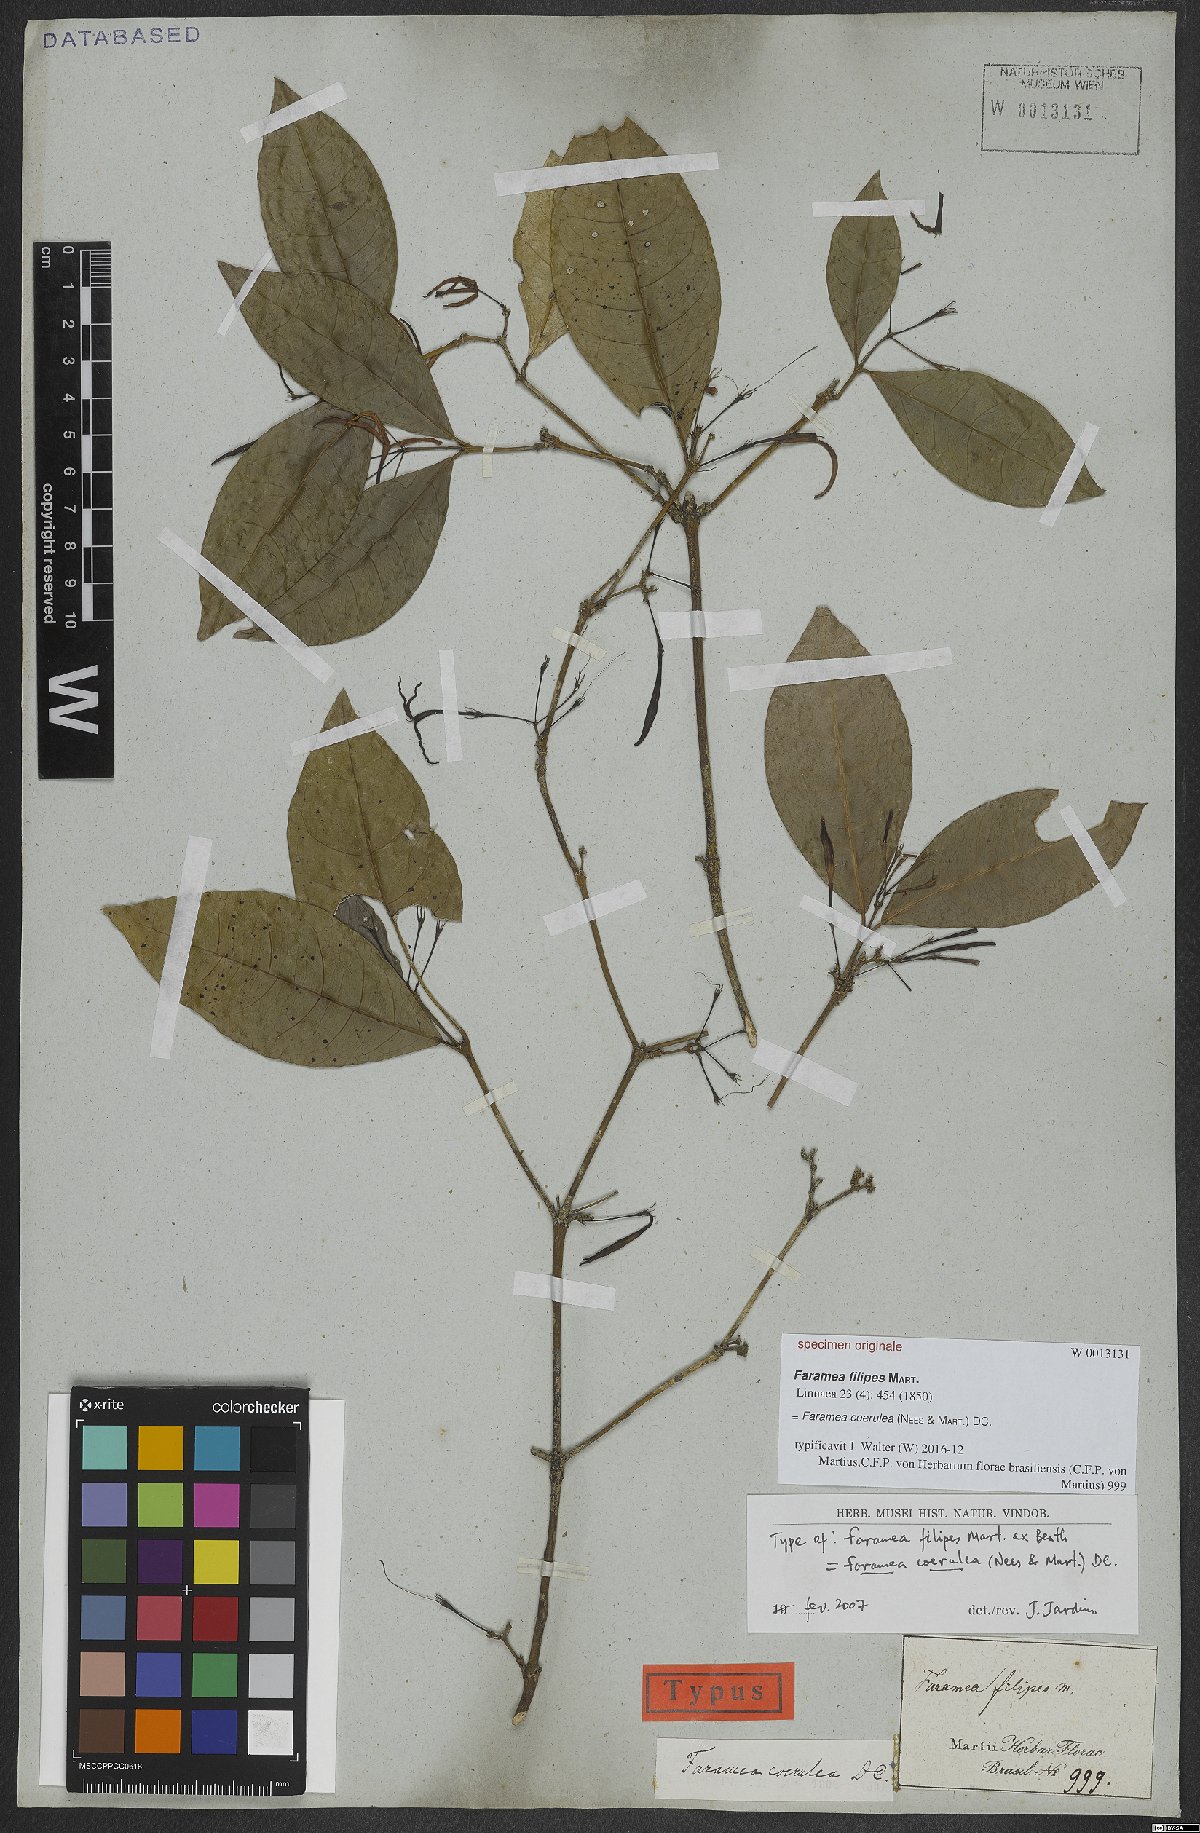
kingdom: Plantae
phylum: Tracheophyta
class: Magnoliopsida
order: Gentianales
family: Rubiaceae
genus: Faramea
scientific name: Faramea coerulea
